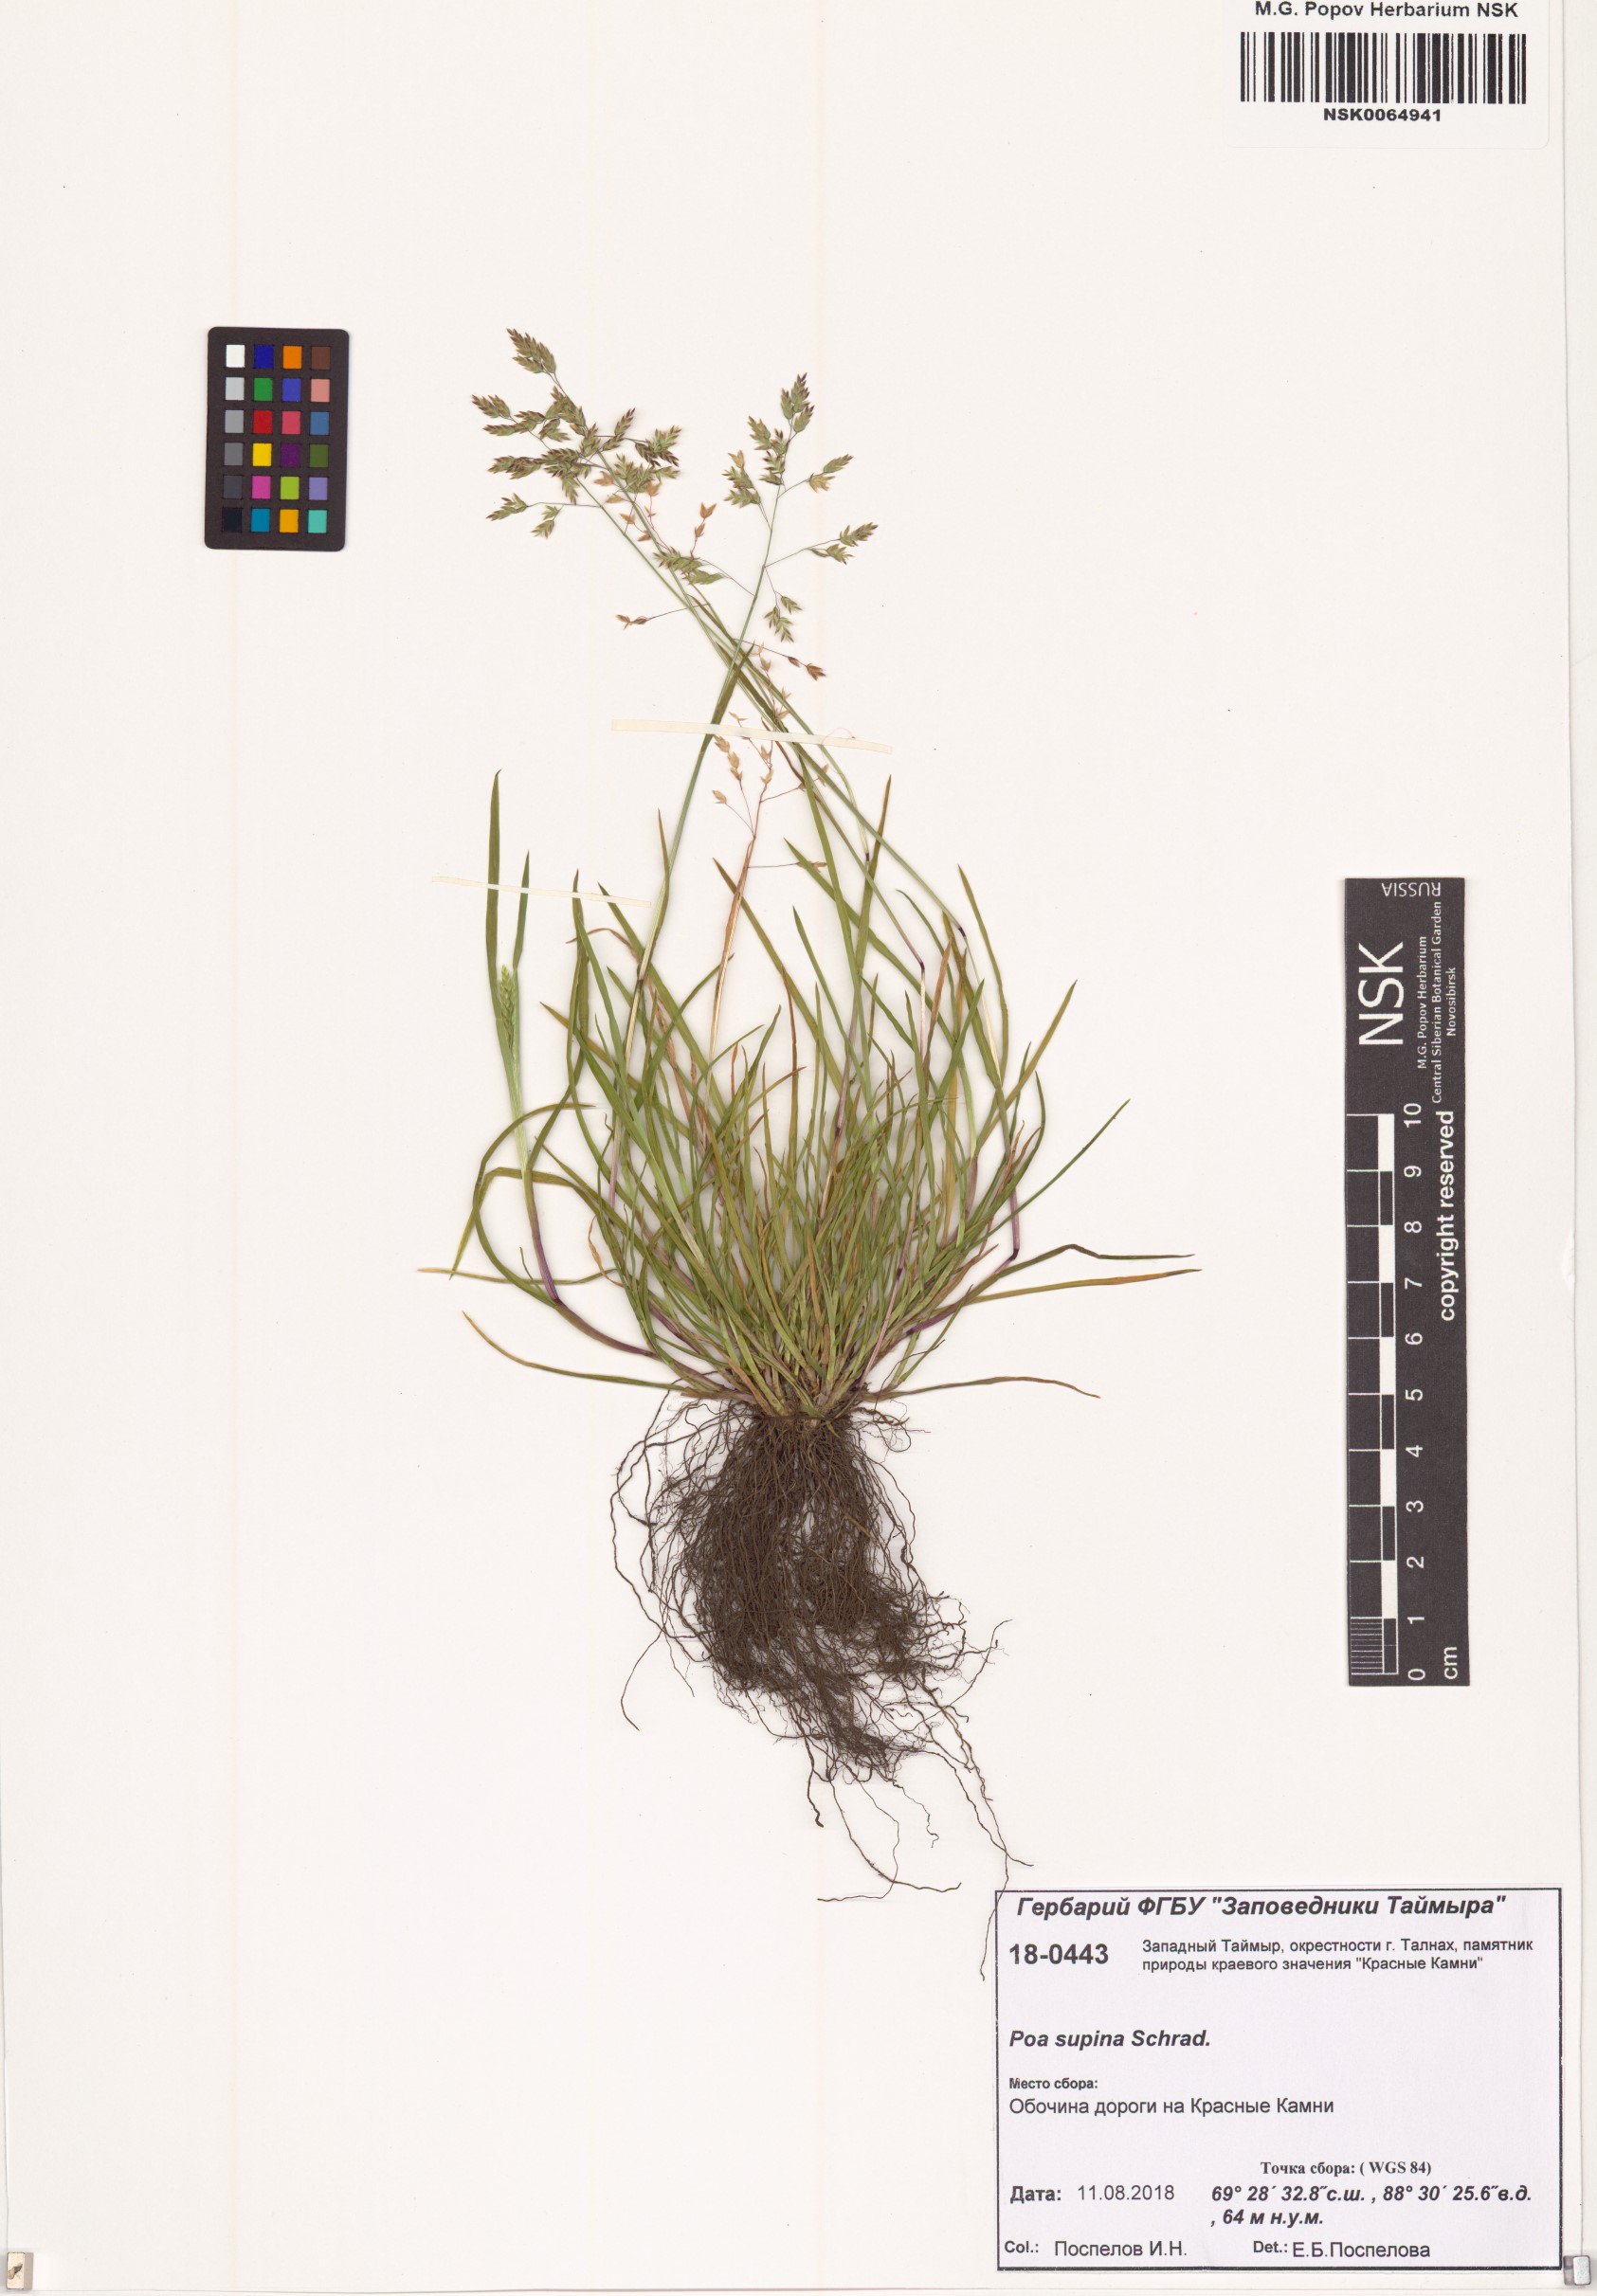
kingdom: Plantae
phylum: Tracheophyta
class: Liliopsida
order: Poales
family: Poaceae
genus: Poa
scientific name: Poa supina
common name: Supina bluegrass
